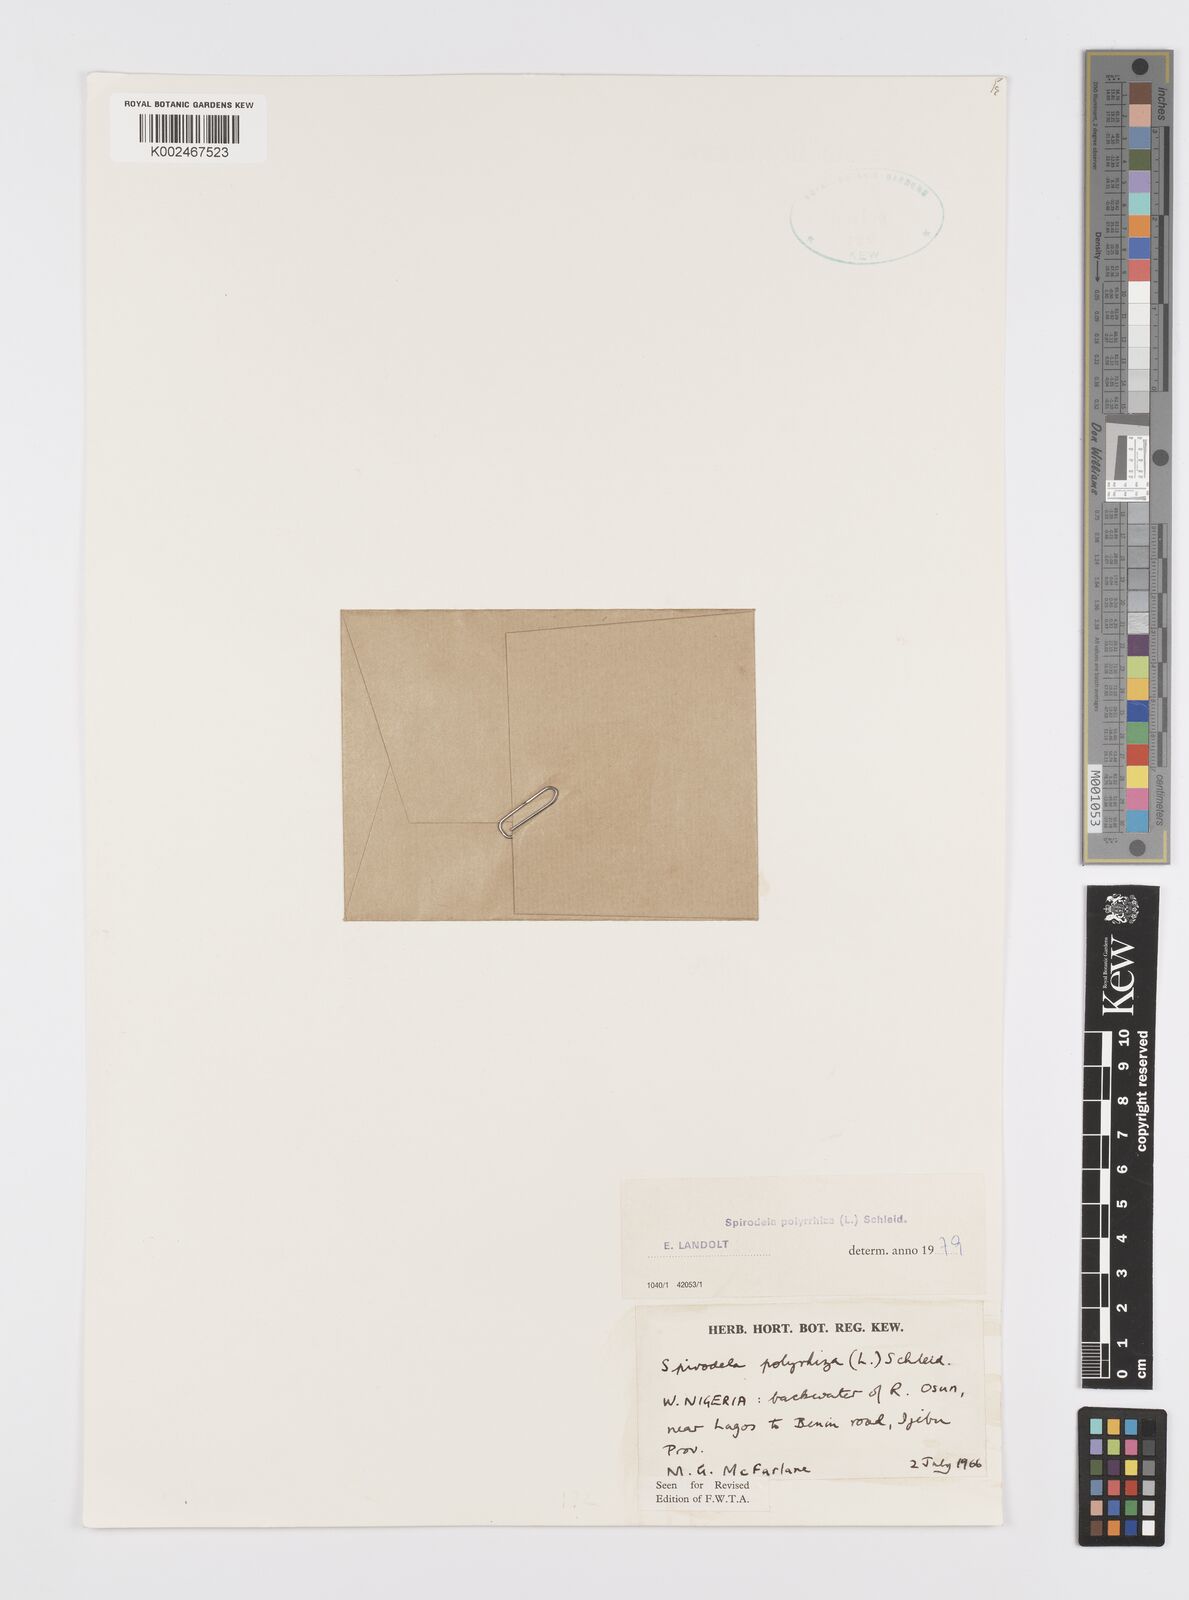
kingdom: Plantae
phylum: Tracheophyta
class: Liliopsida
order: Alismatales
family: Araceae
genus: Spirodela
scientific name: Spirodela polyrhiza
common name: Great duckweed
